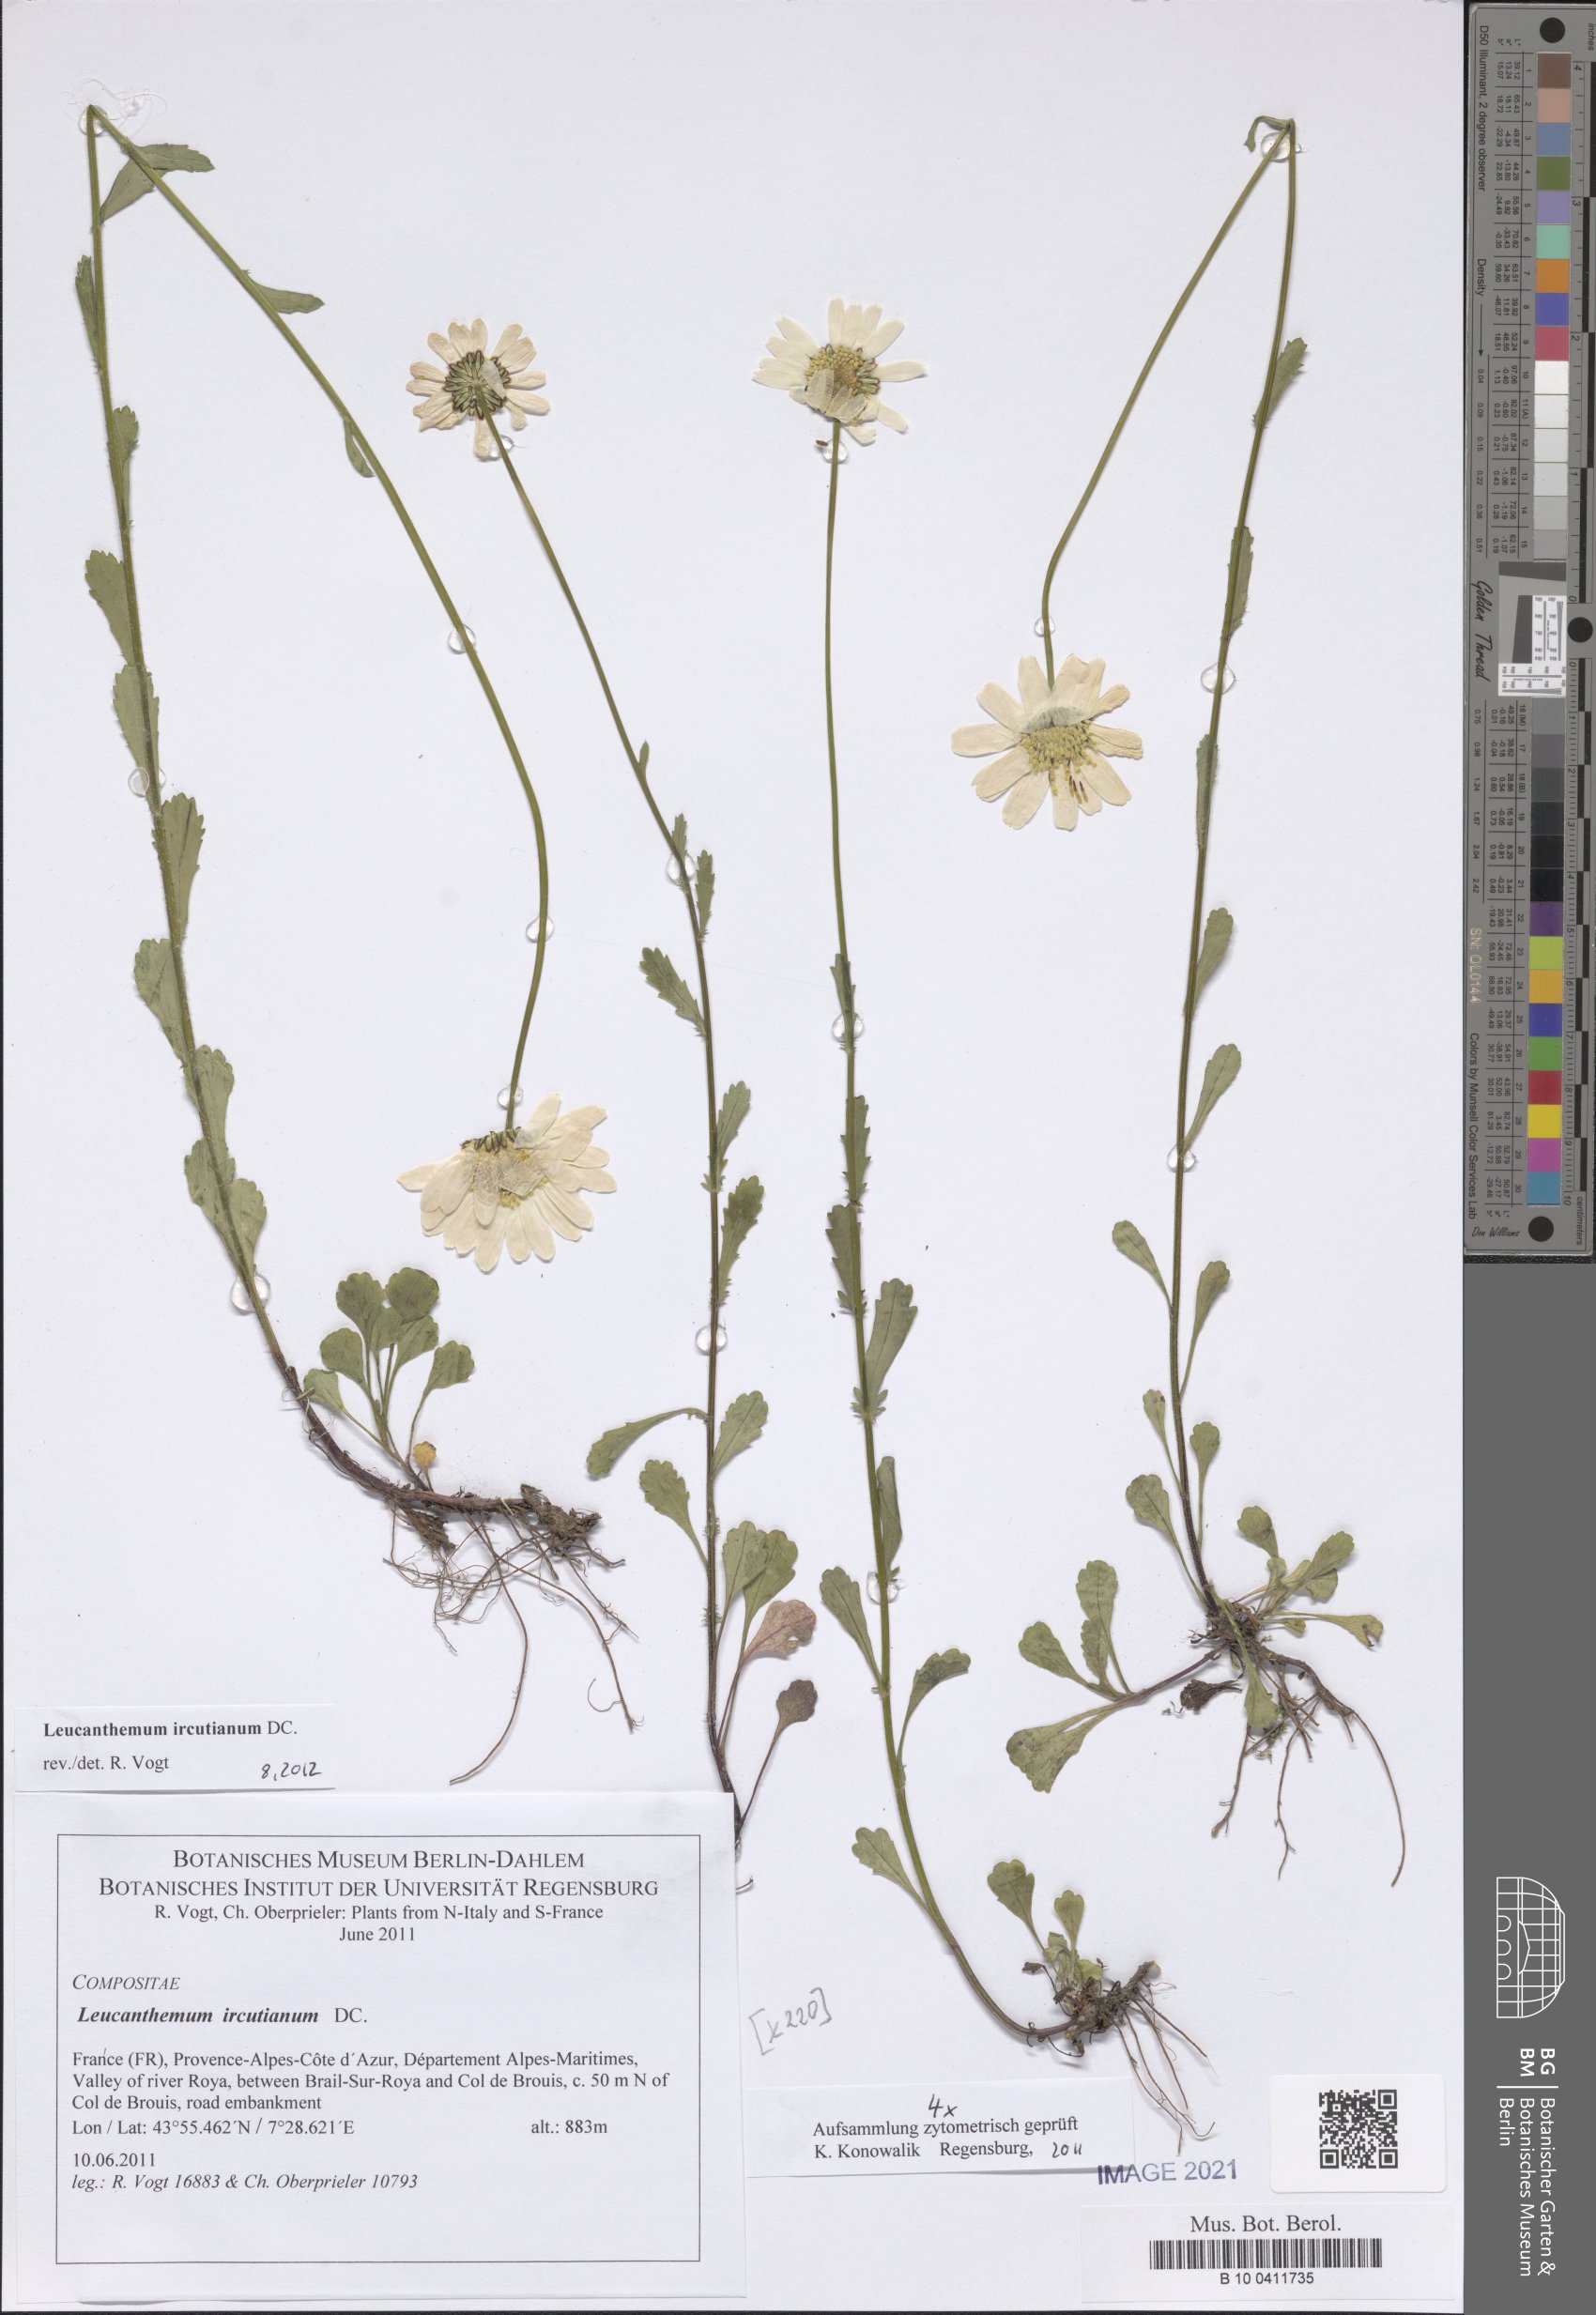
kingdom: Plantae
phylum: Tracheophyta
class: Magnoliopsida
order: Asterales
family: Asteraceae
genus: Leucanthemum
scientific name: Leucanthemum ircutianum
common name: Daisy
